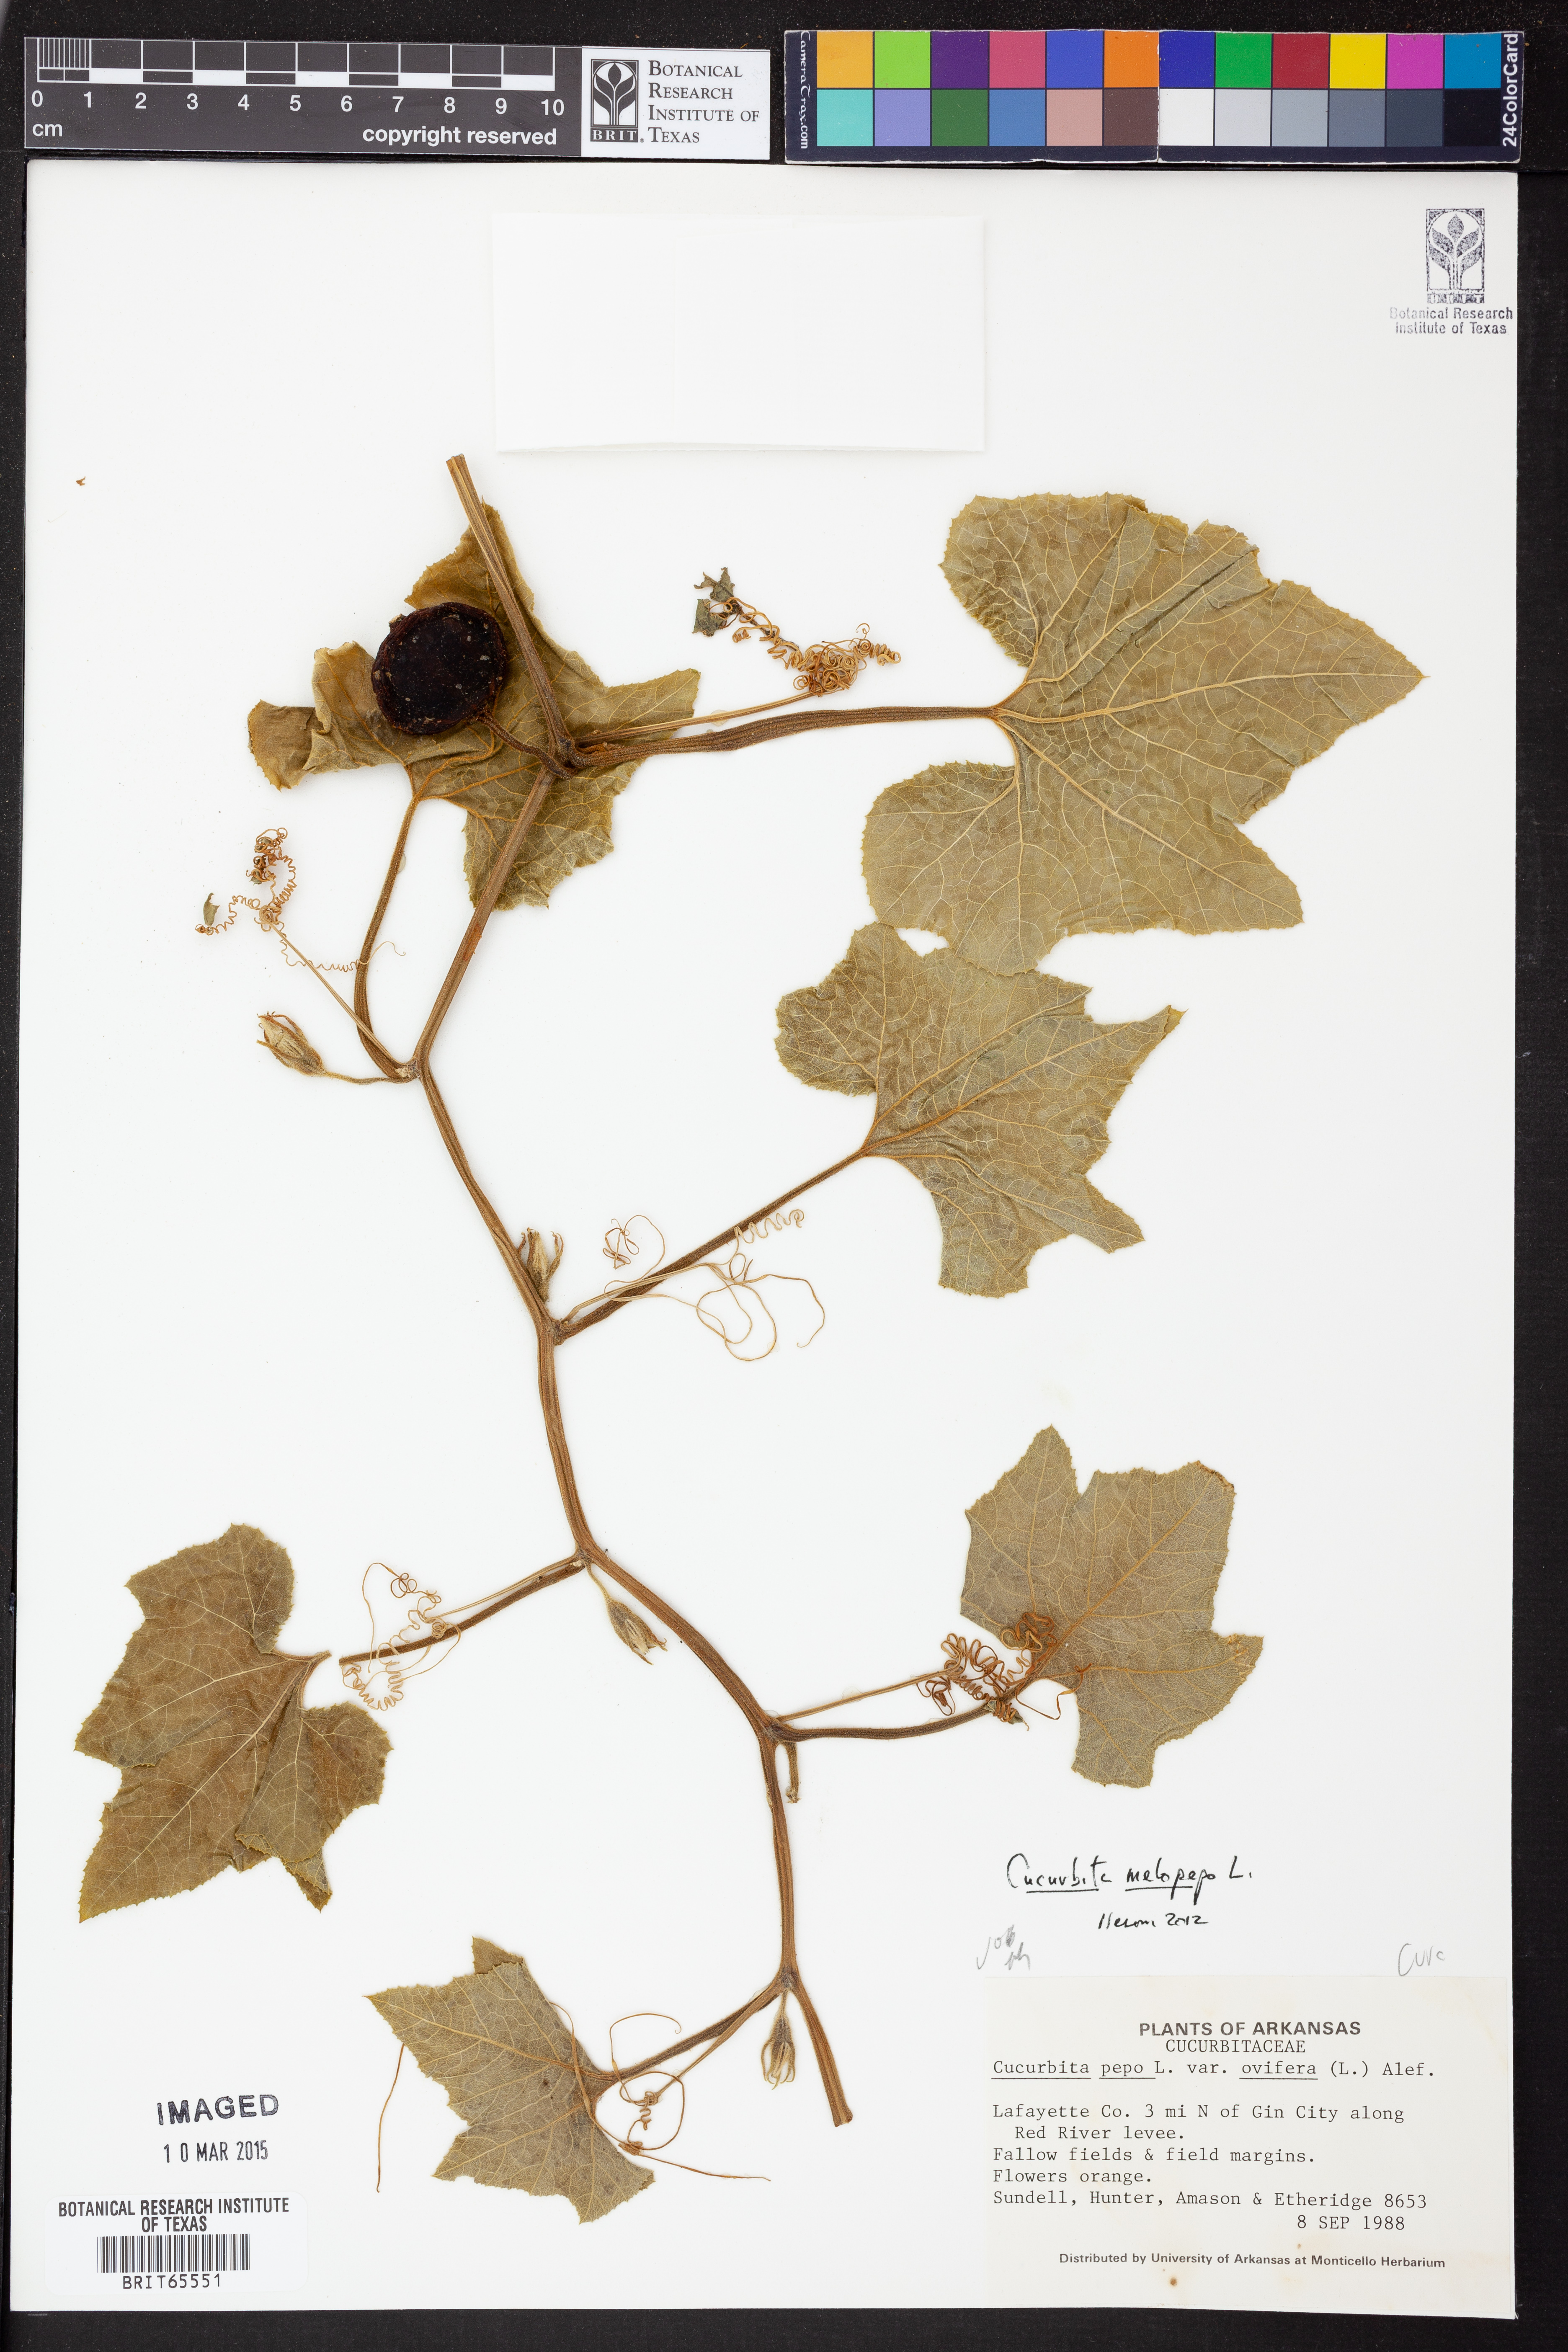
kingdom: Plantae
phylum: Tracheophyta
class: Magnoliopsida
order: Cucurbitales
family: Cucurbitaceae
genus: Cucurbita
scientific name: Cucurbita melopepo
